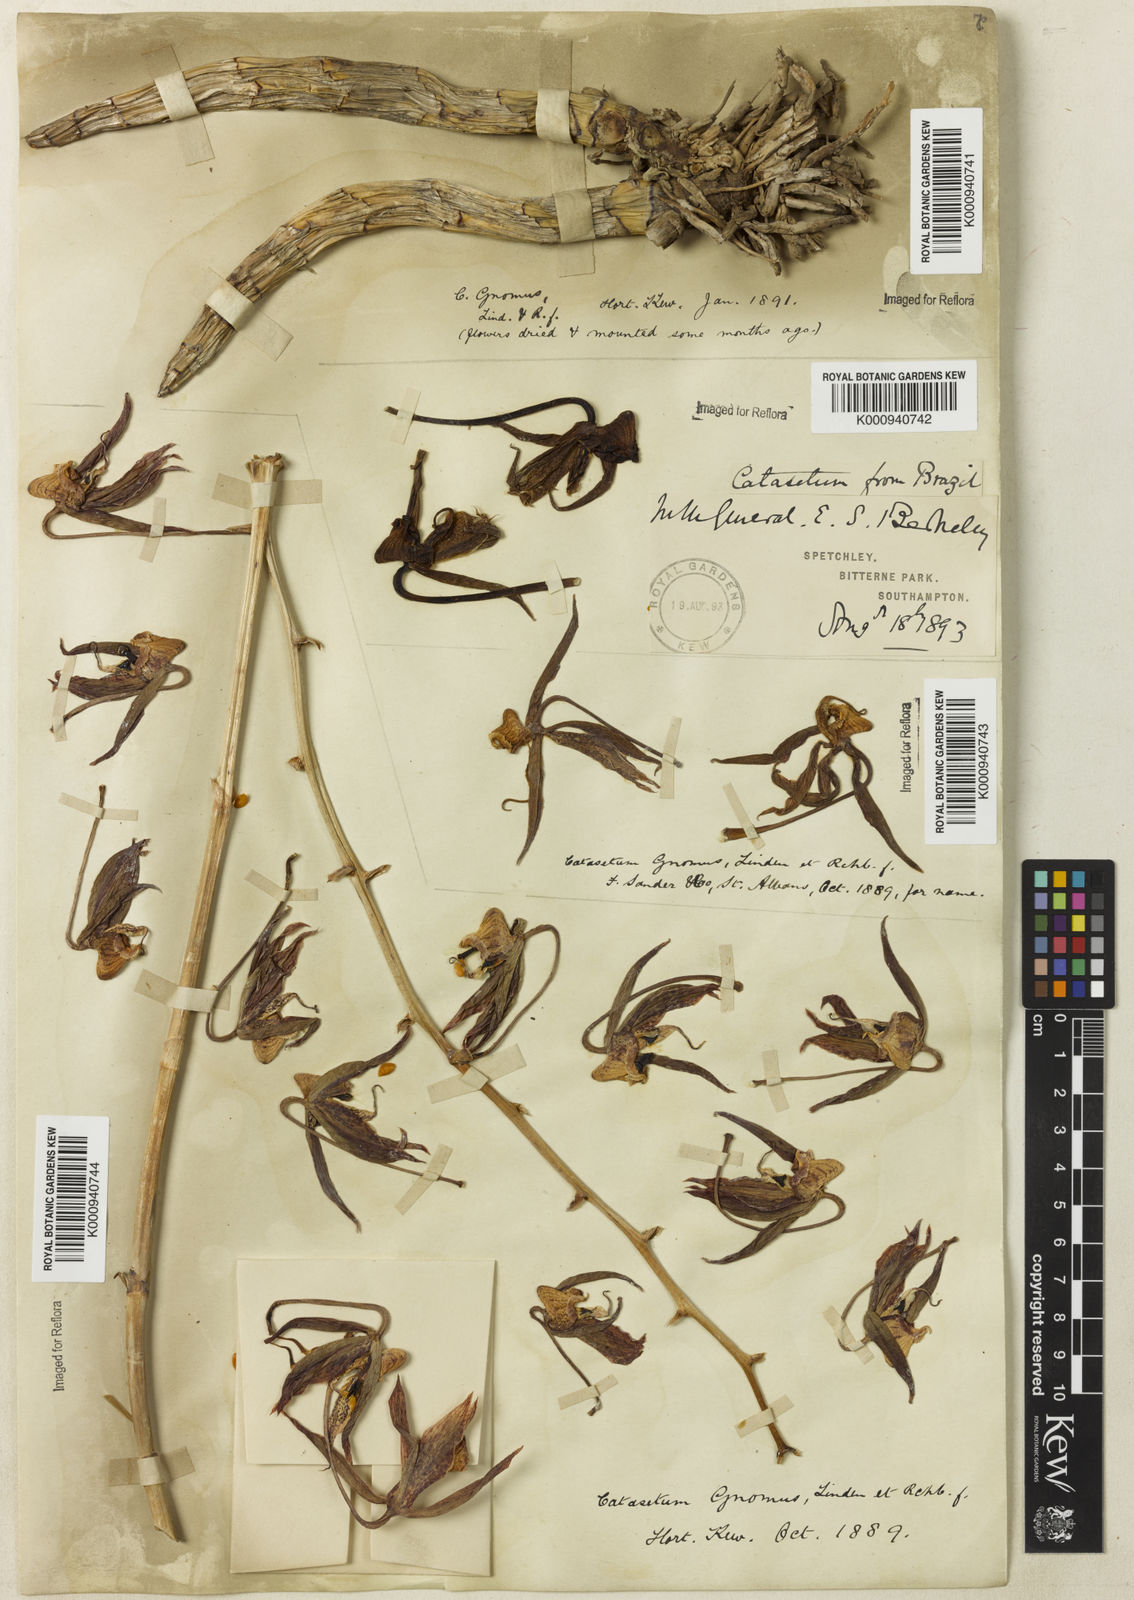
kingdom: Plantae
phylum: Tracheophyta
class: Liliopsida
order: Asparagales
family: Orchidaceae
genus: Catasetum
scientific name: Catasetum gnomus
